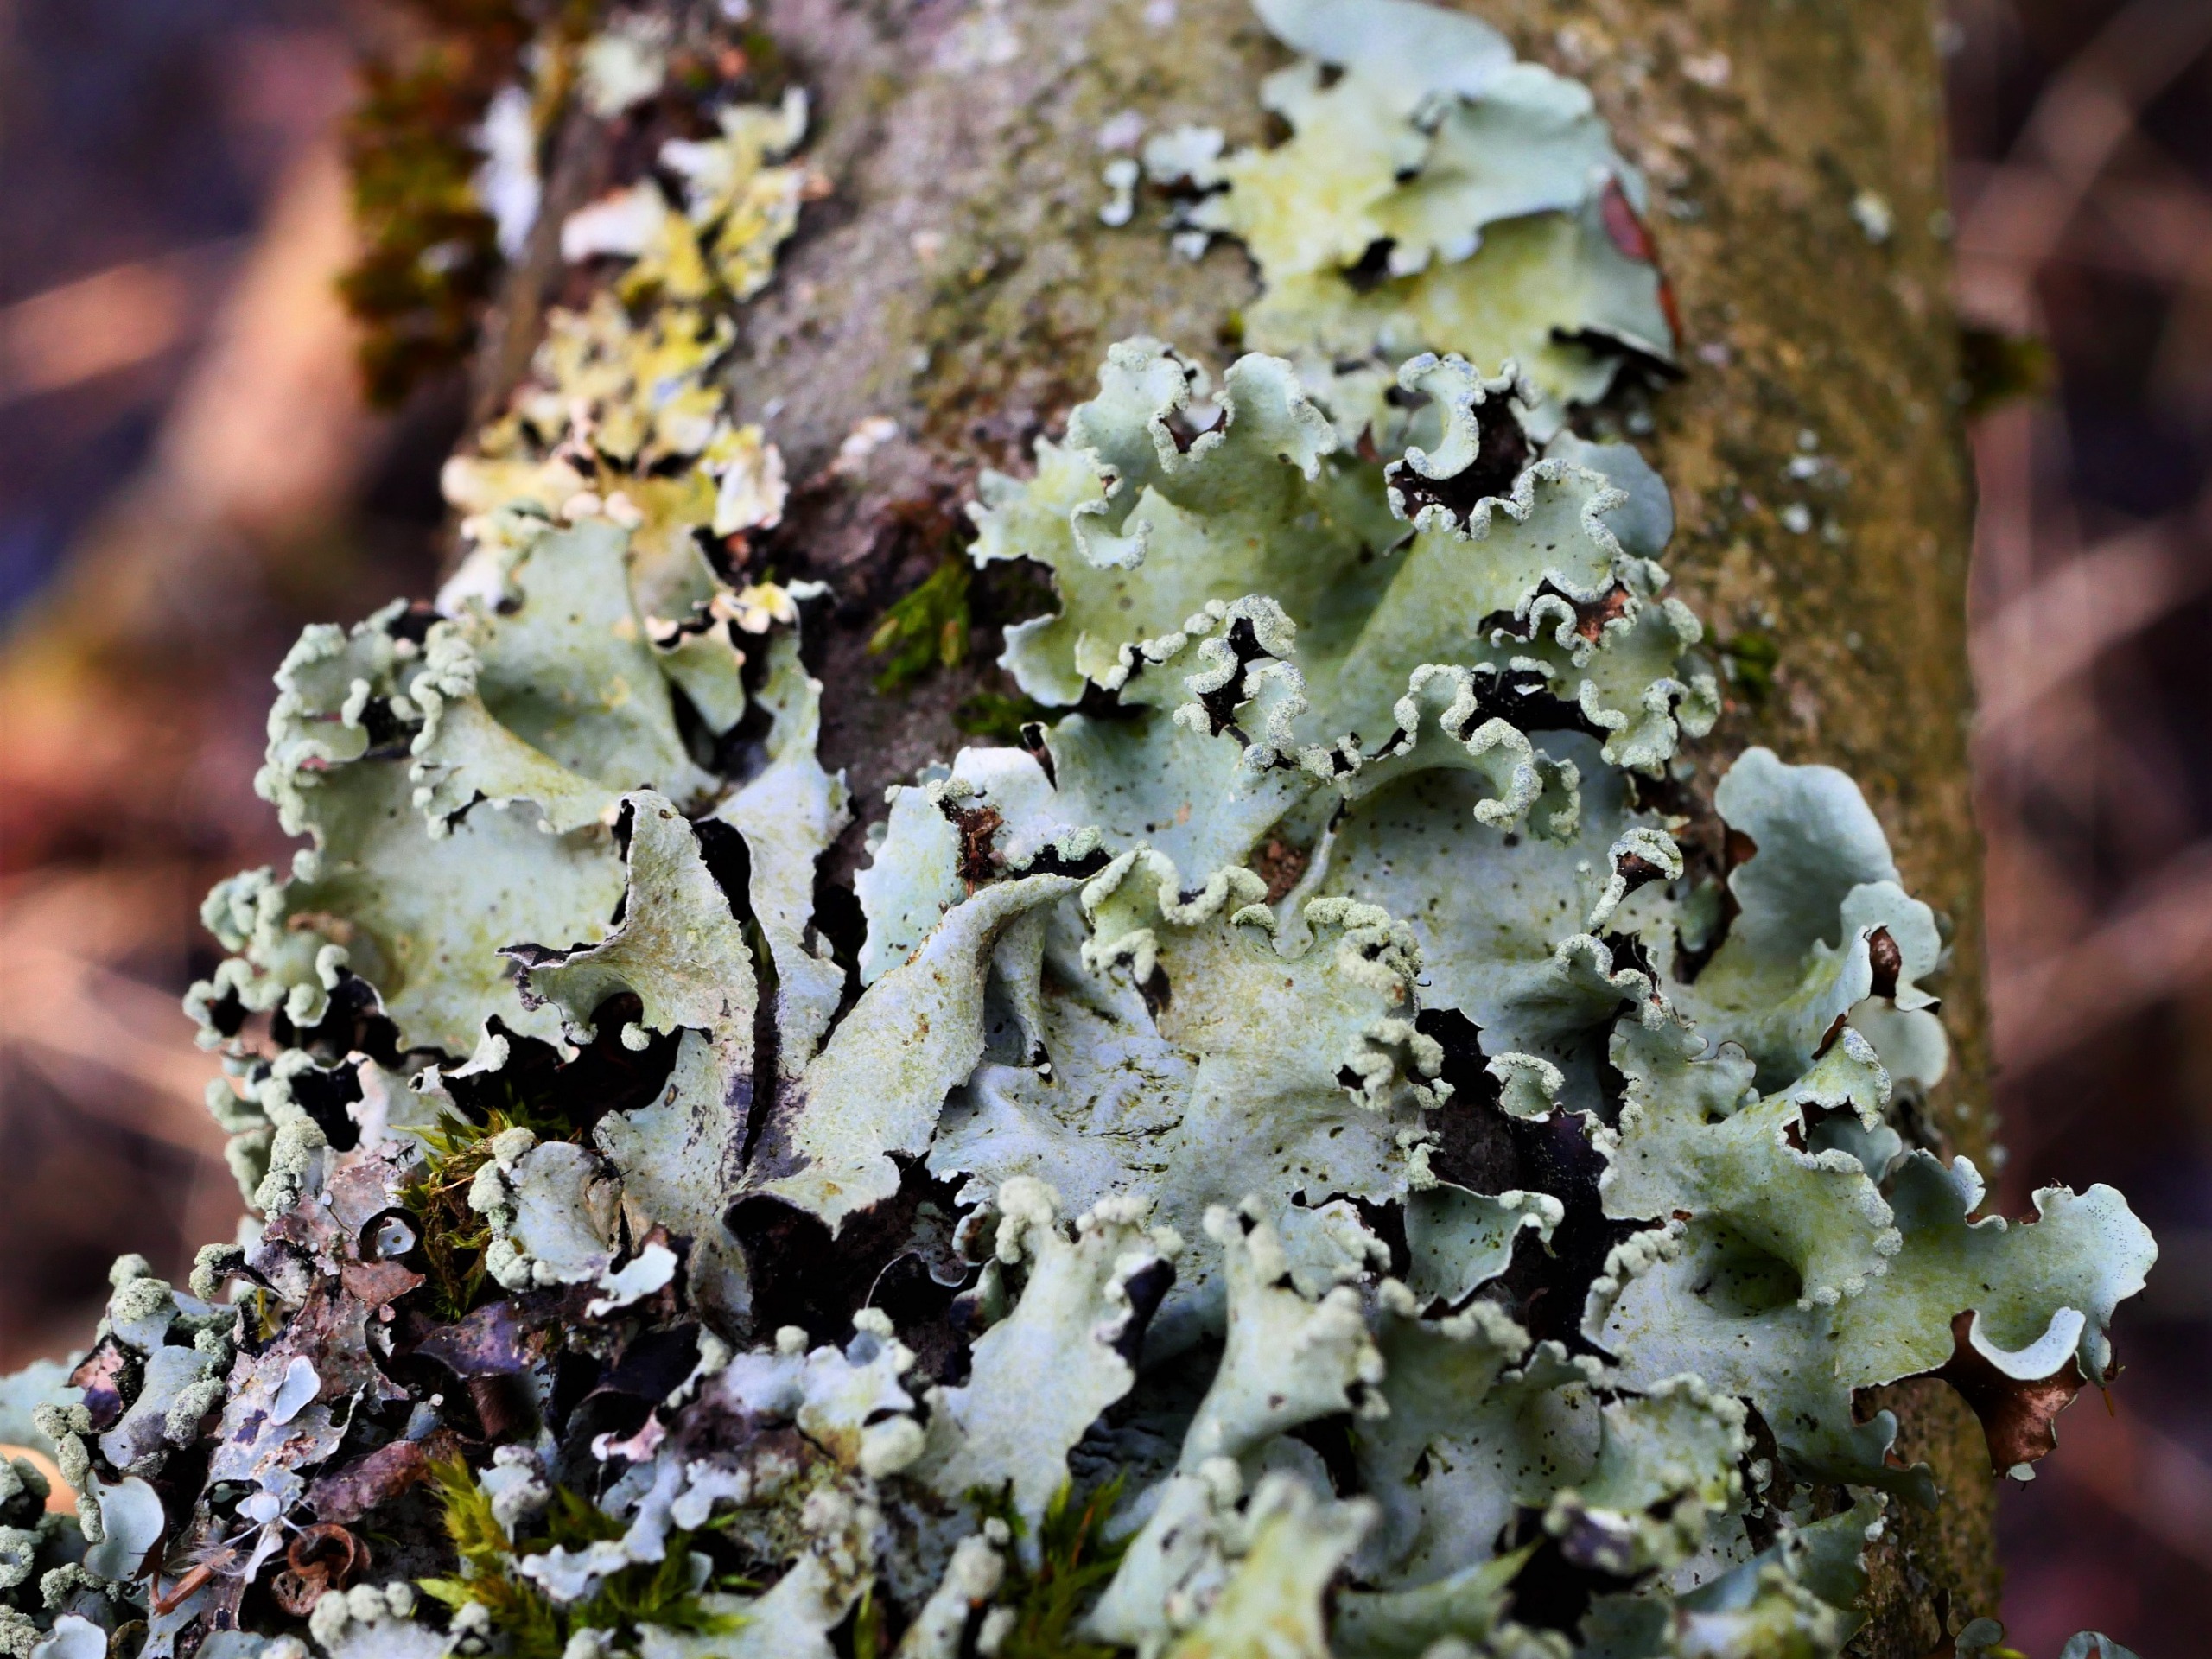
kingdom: Fungi
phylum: Ascomycota
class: Lecanoromycetes
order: Lecanorales
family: Parmeliaceae
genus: Parmotrema
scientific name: Parmotrema perlatum
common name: Trådet skållav
